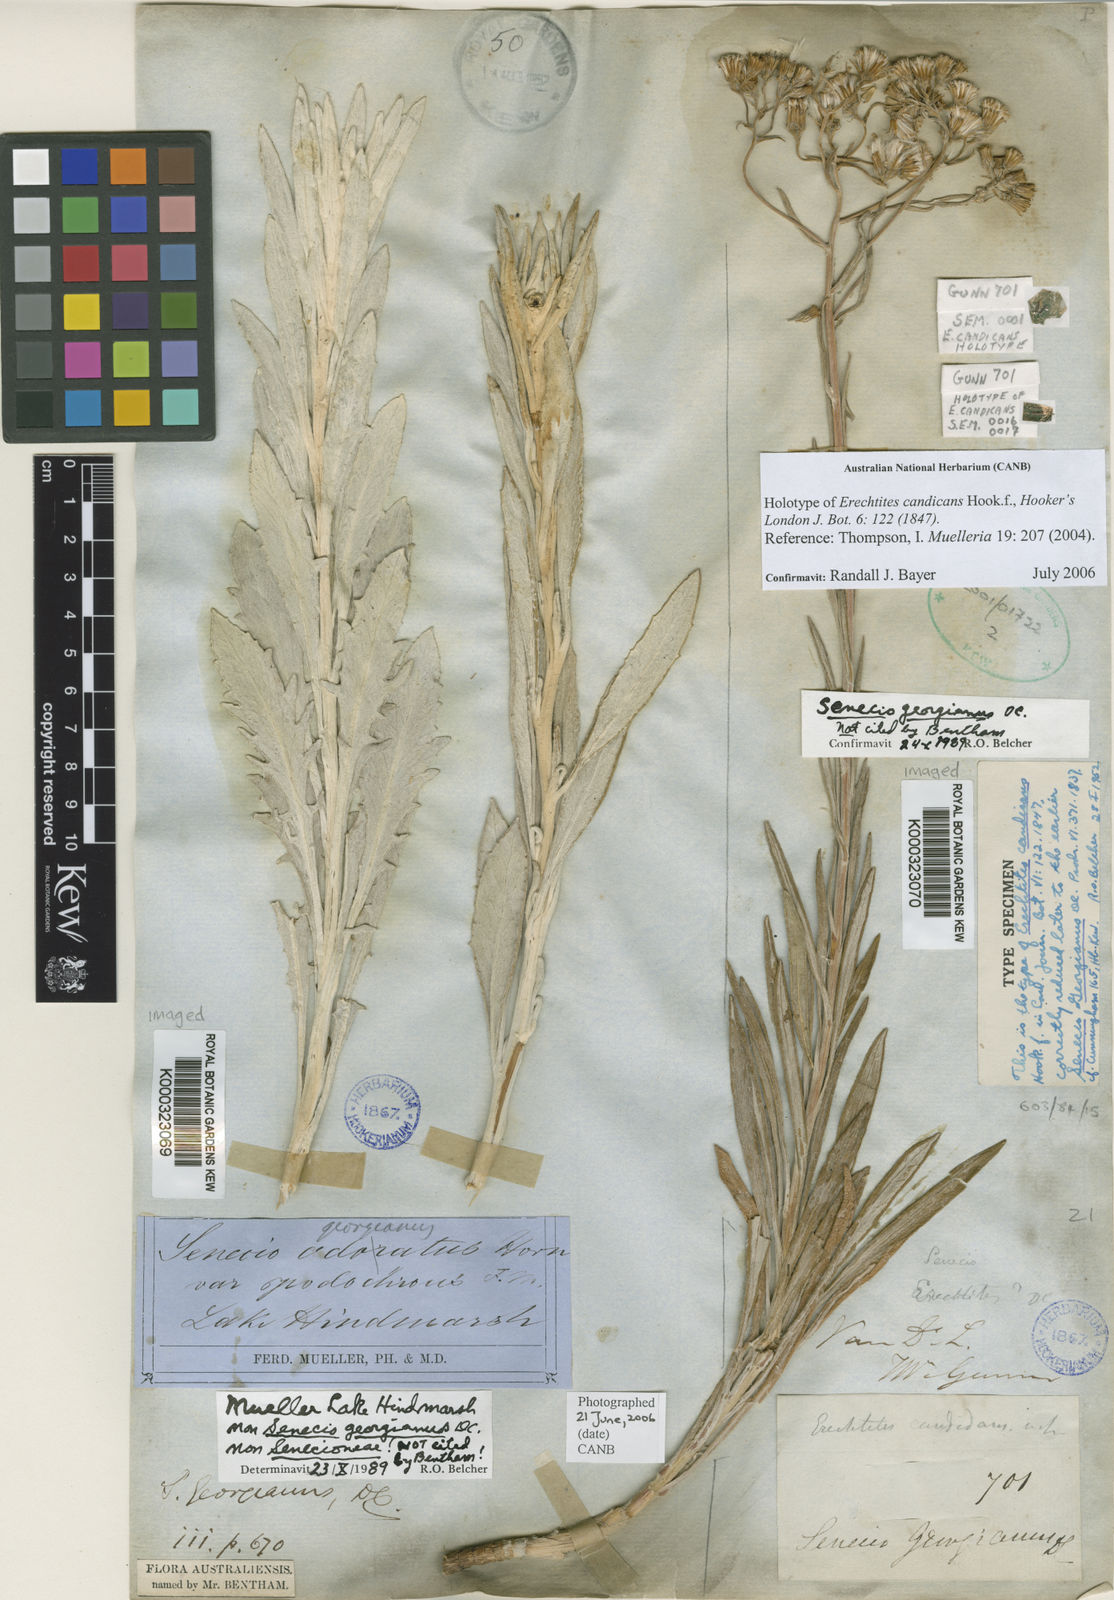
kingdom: Plantae
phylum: Tracheophyta
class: Magnoliopsida
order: Asterales
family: Asteraceae
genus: Senecio
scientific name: Senecio georgianus
